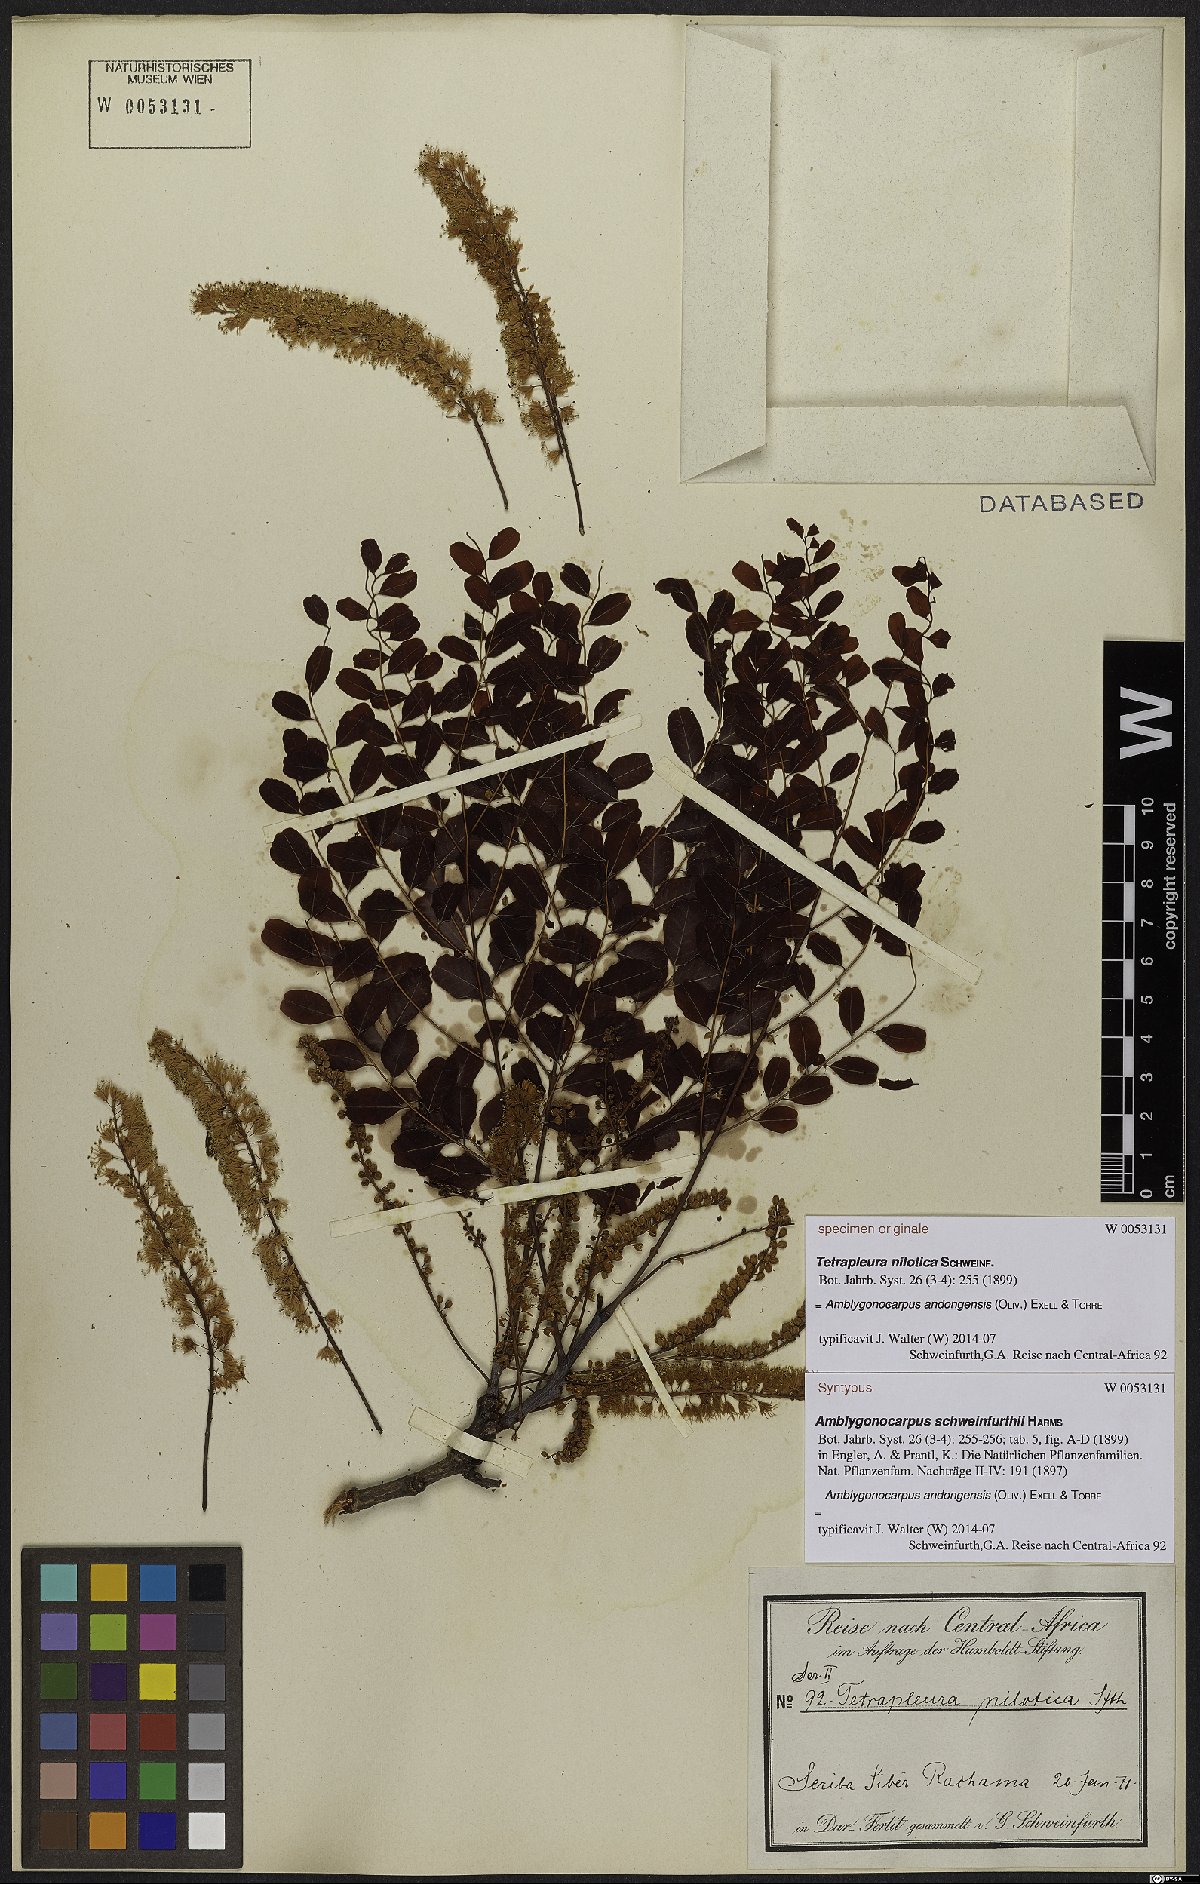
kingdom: Plantae
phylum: Tracheophyta
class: Magnoliopsida
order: Fabales
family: Fabaceae
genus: Amblygonocarpus
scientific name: Amblygonocarpus andongensis
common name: Bangawanga
